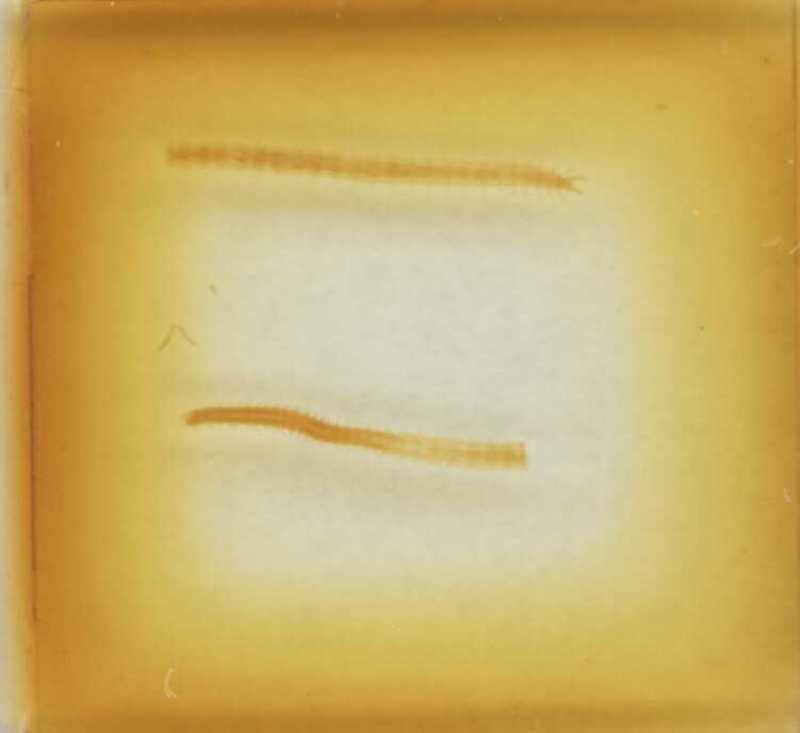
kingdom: Animalia
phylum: Arthropoda
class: Chilopoda
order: Geophilomorpha
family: Geophilidae
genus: Stenotaenia
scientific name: Stenotaenia sorrentina
